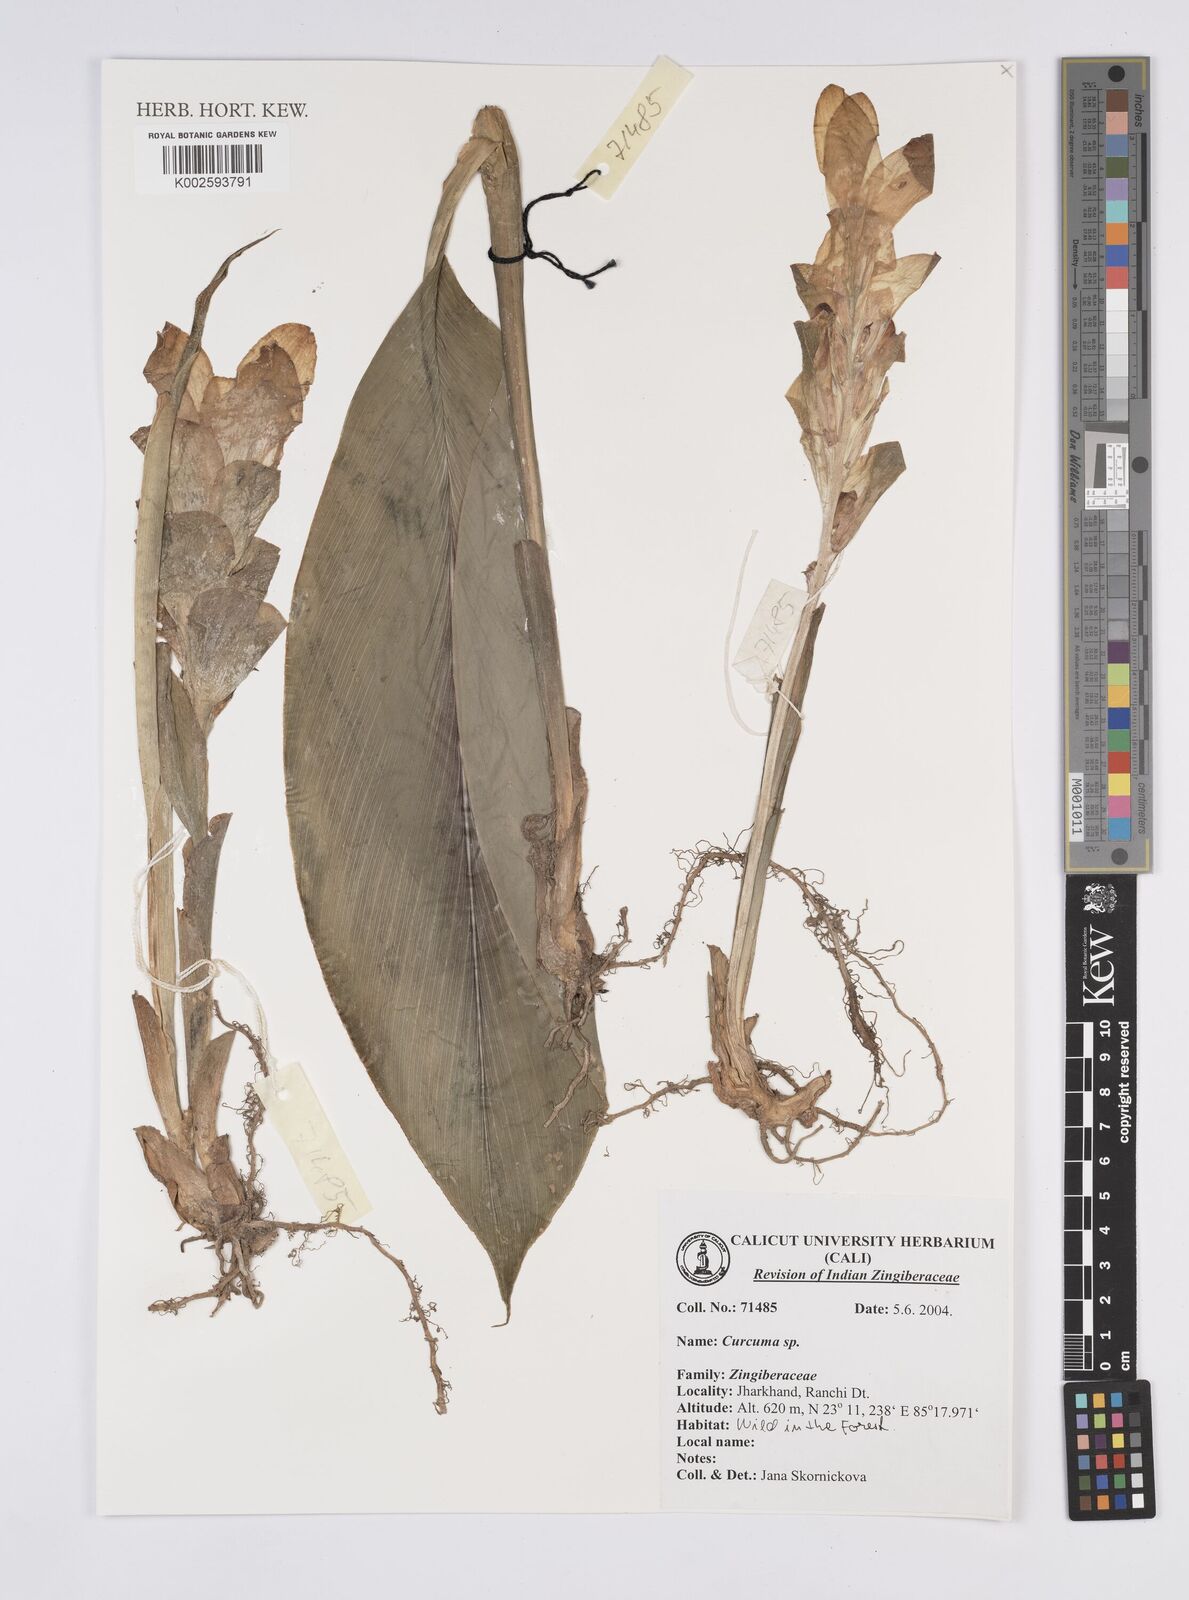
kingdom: Plantae
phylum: Tracheophyta
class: Liliopsida
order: Zingiberales
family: Zingiberaceae
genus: Curcuma
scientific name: Curcuma
